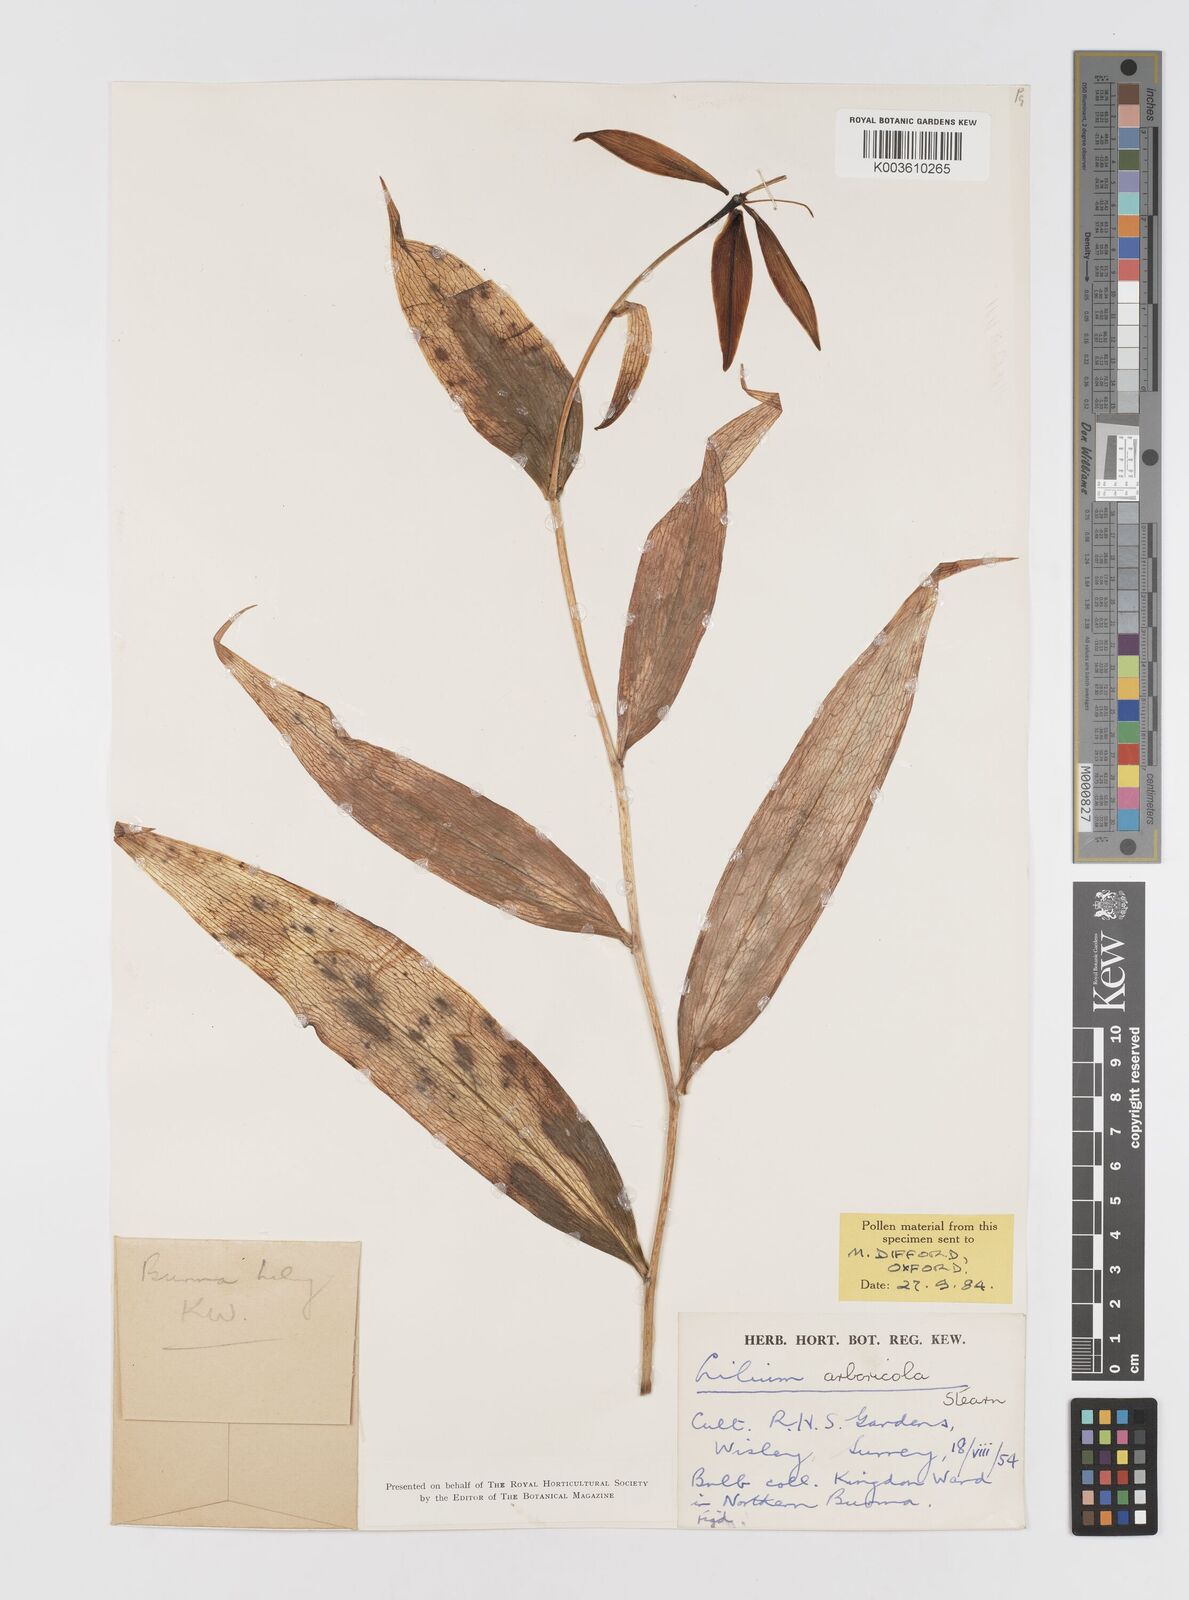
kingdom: Plantae
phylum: Tracheophyta
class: Liliopsida
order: Liliales
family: Liliaceae
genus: Lilium
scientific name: Lilium arboricola
